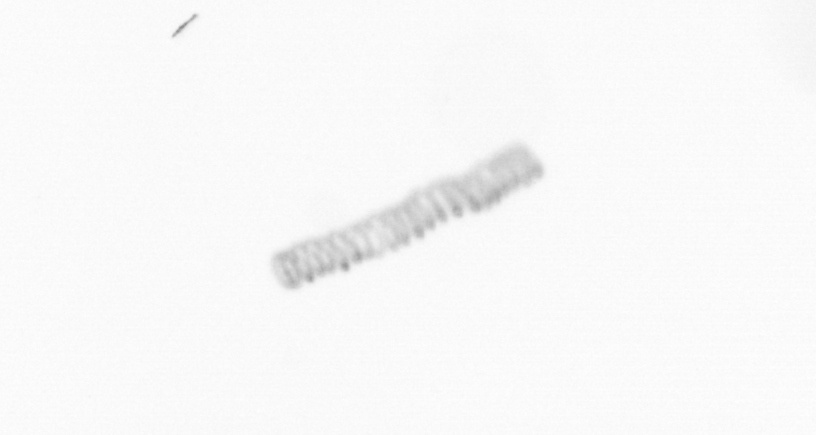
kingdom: Chromista
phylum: Ochrophyta
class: Bacillariophyceae
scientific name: Bacillariophyceae
